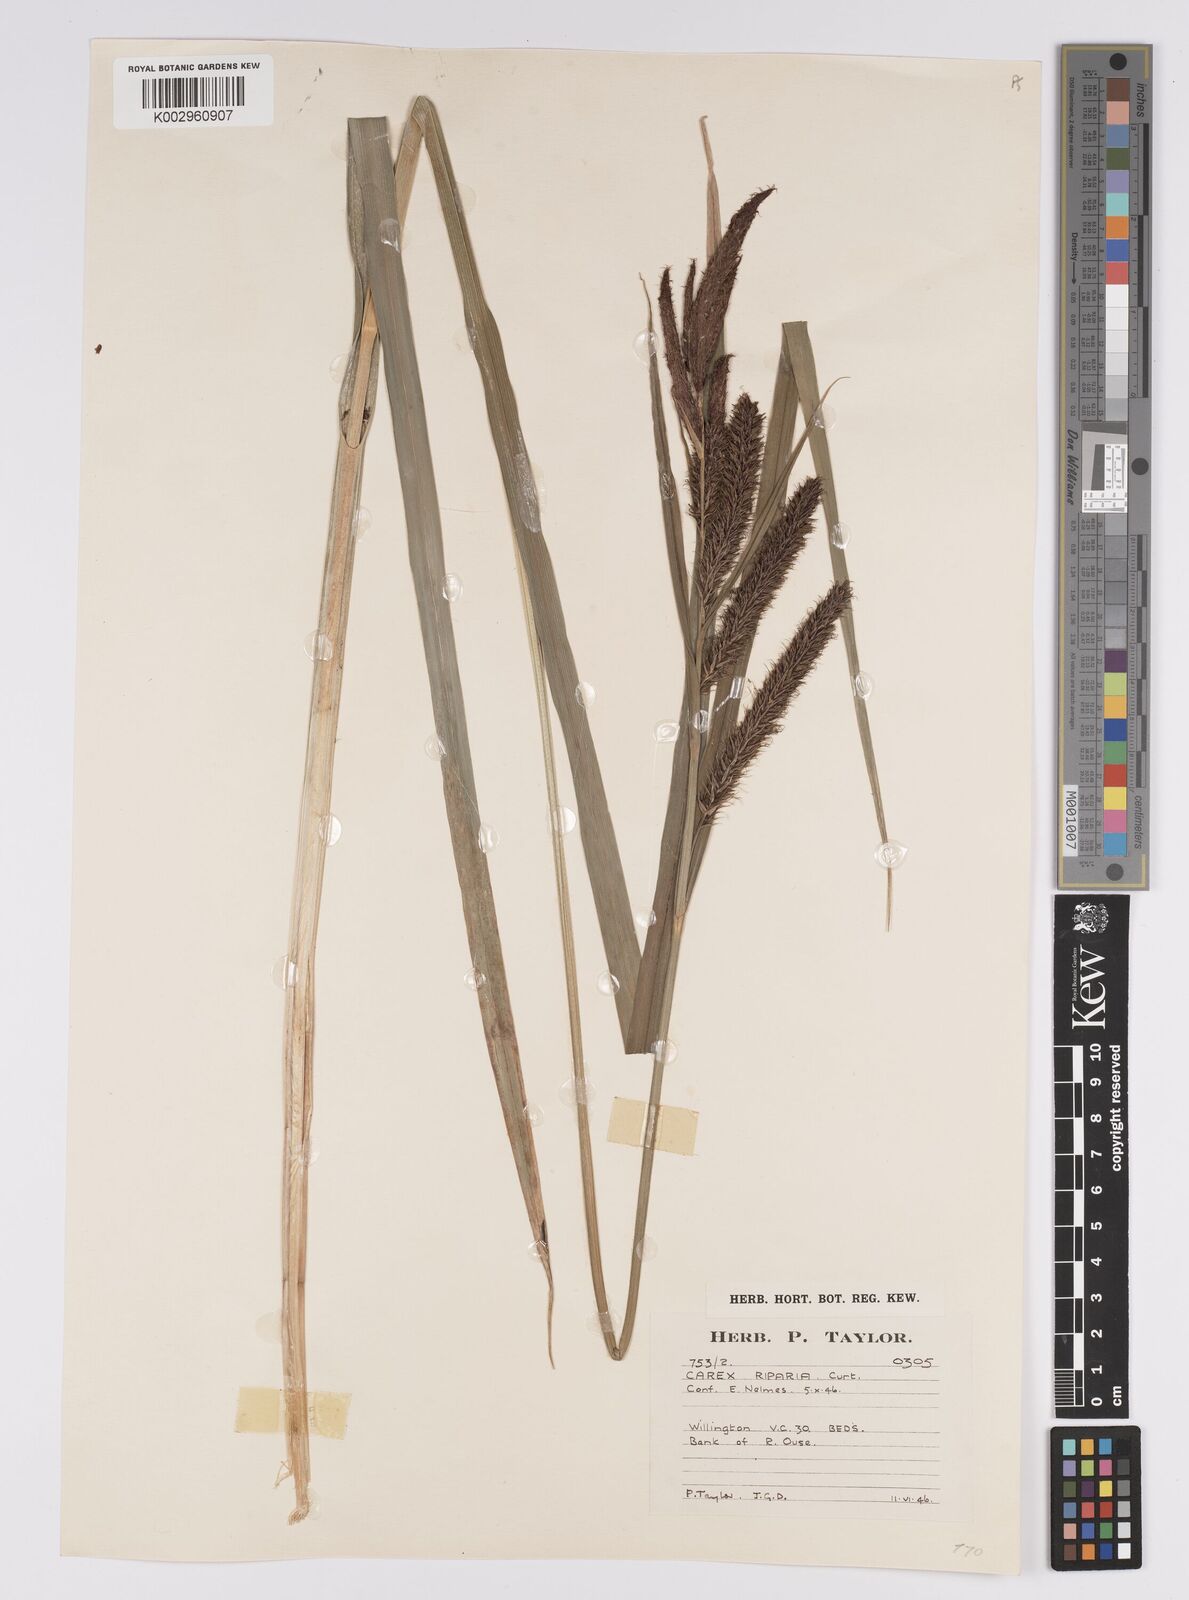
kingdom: Plantae
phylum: Tracheophyta
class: Liliopsida
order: Poales
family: Cyperaceae
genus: Carex
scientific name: Carex riparia
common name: Greater pond-sedge
